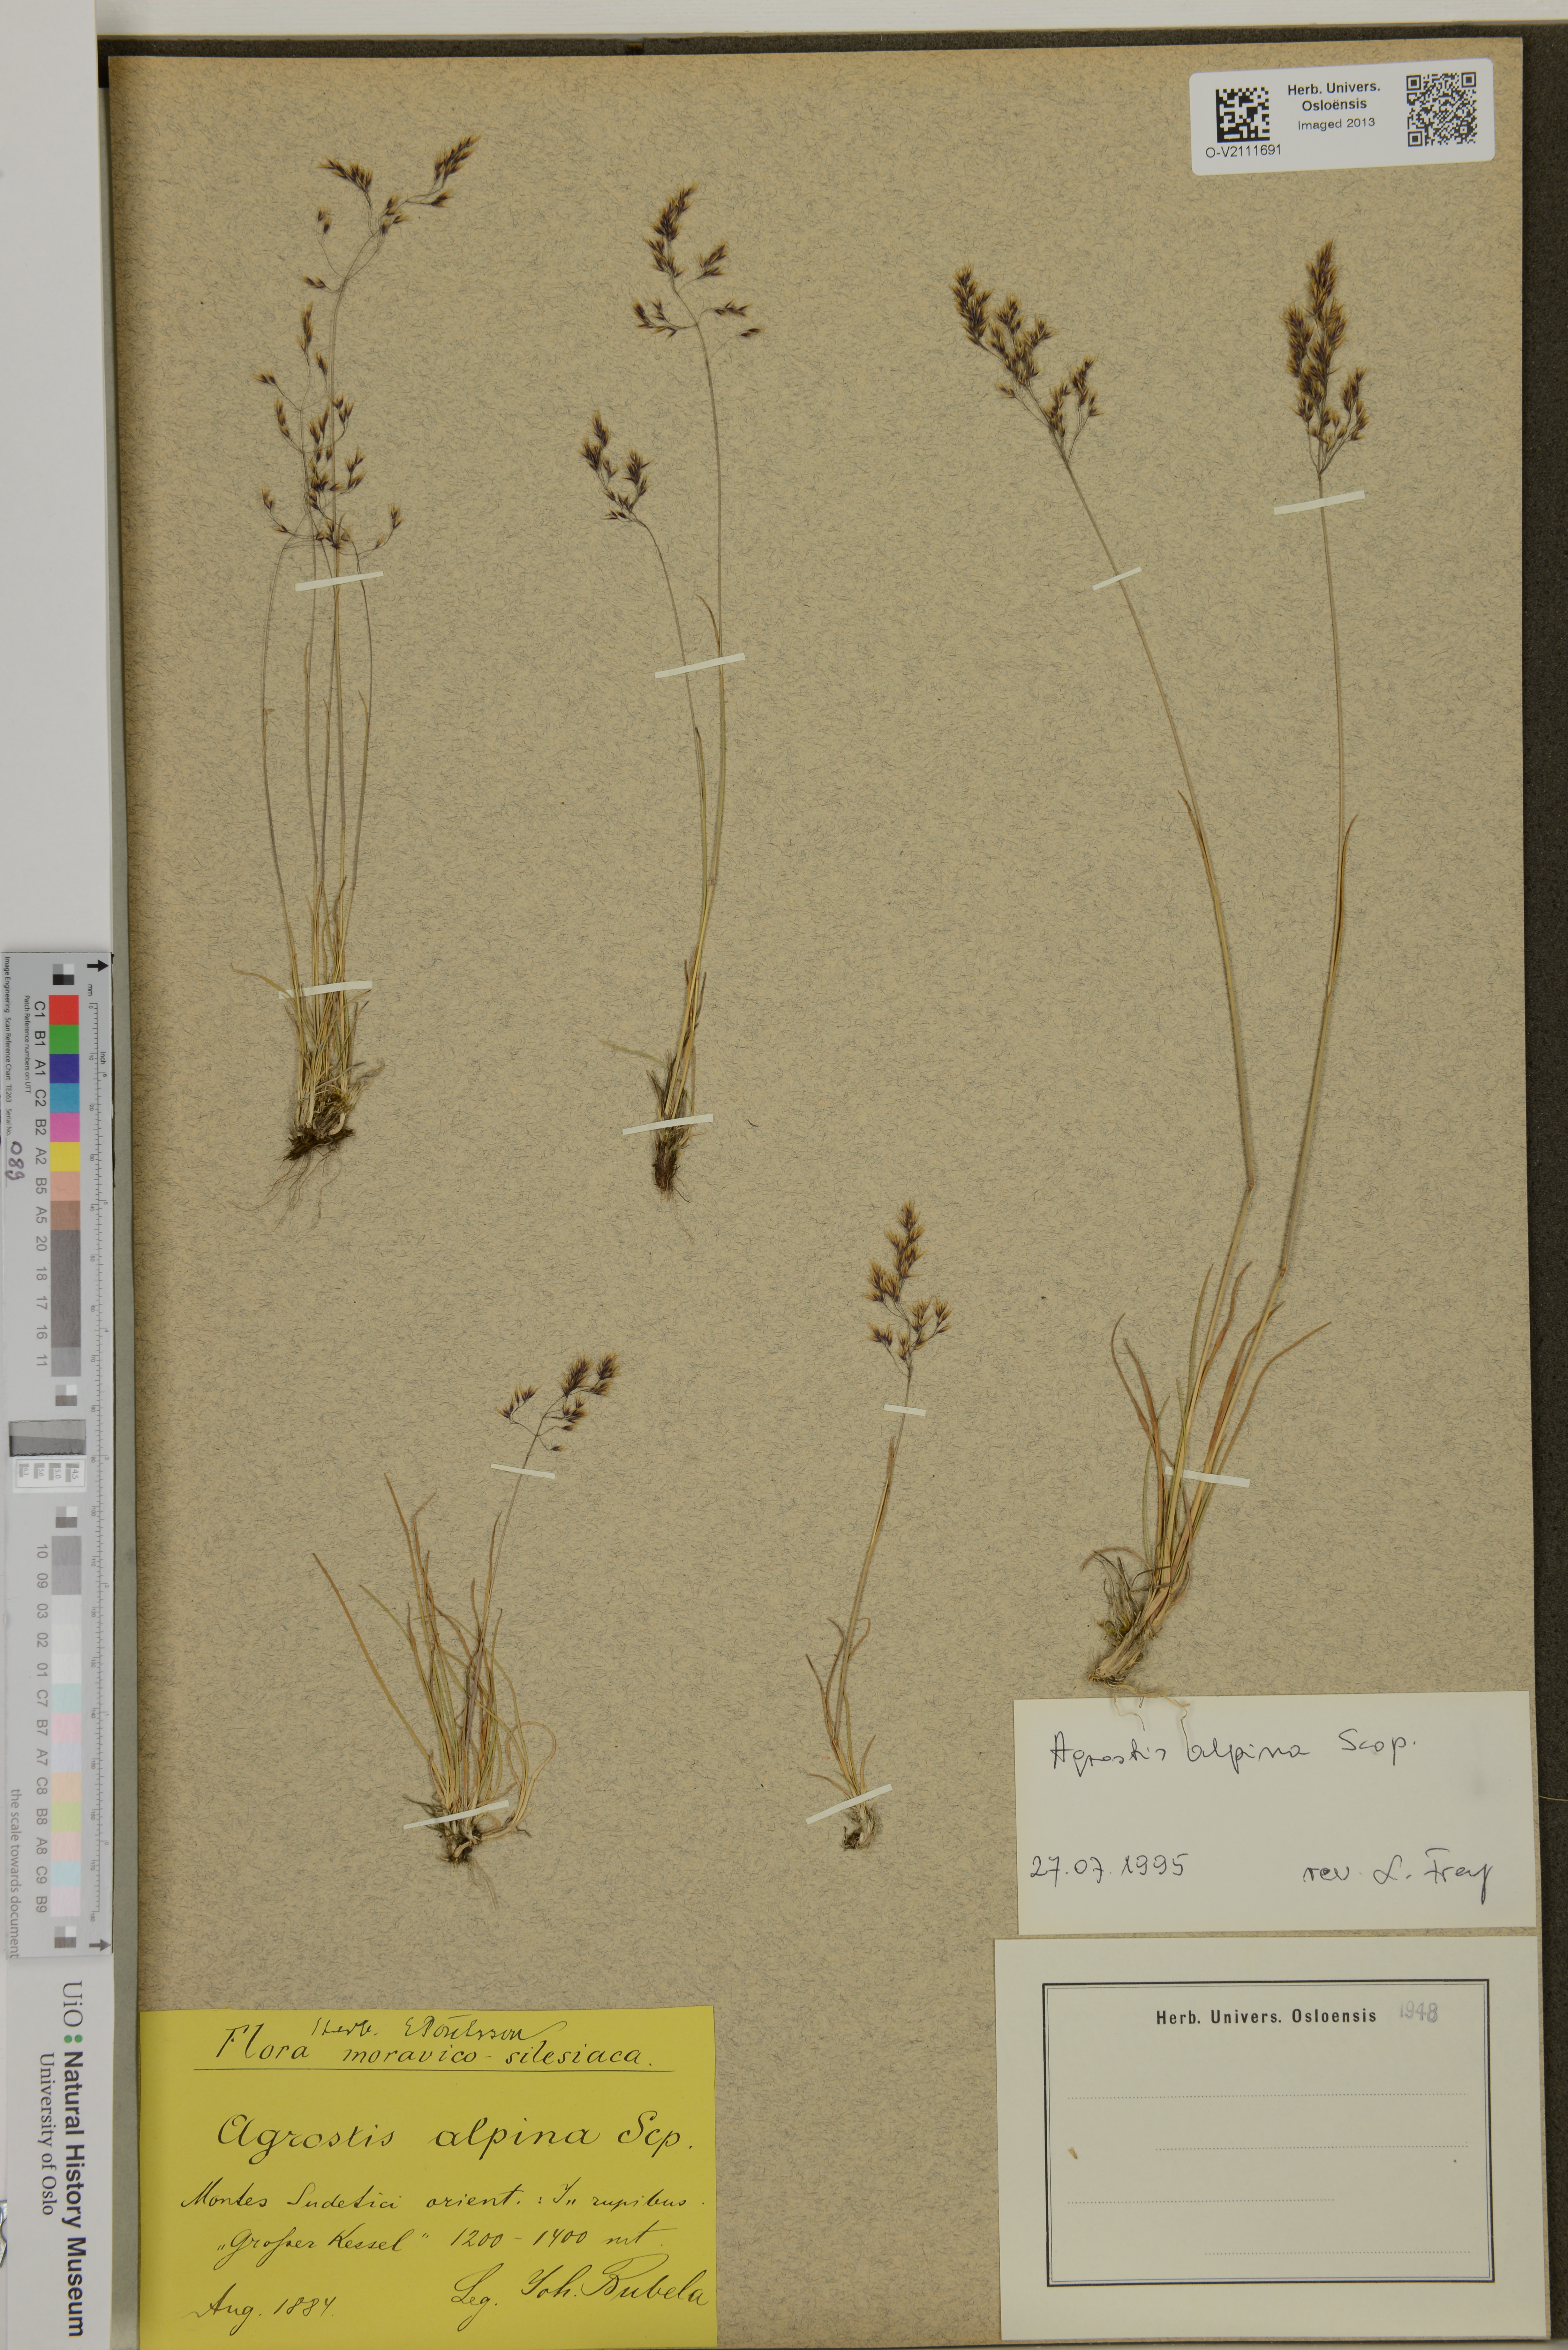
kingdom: Plantae
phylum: Tracheophyta
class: Liliopsida
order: Poales
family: Poaceae
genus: Agrostis
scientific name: Agrostis mertensii
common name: Northern bent
